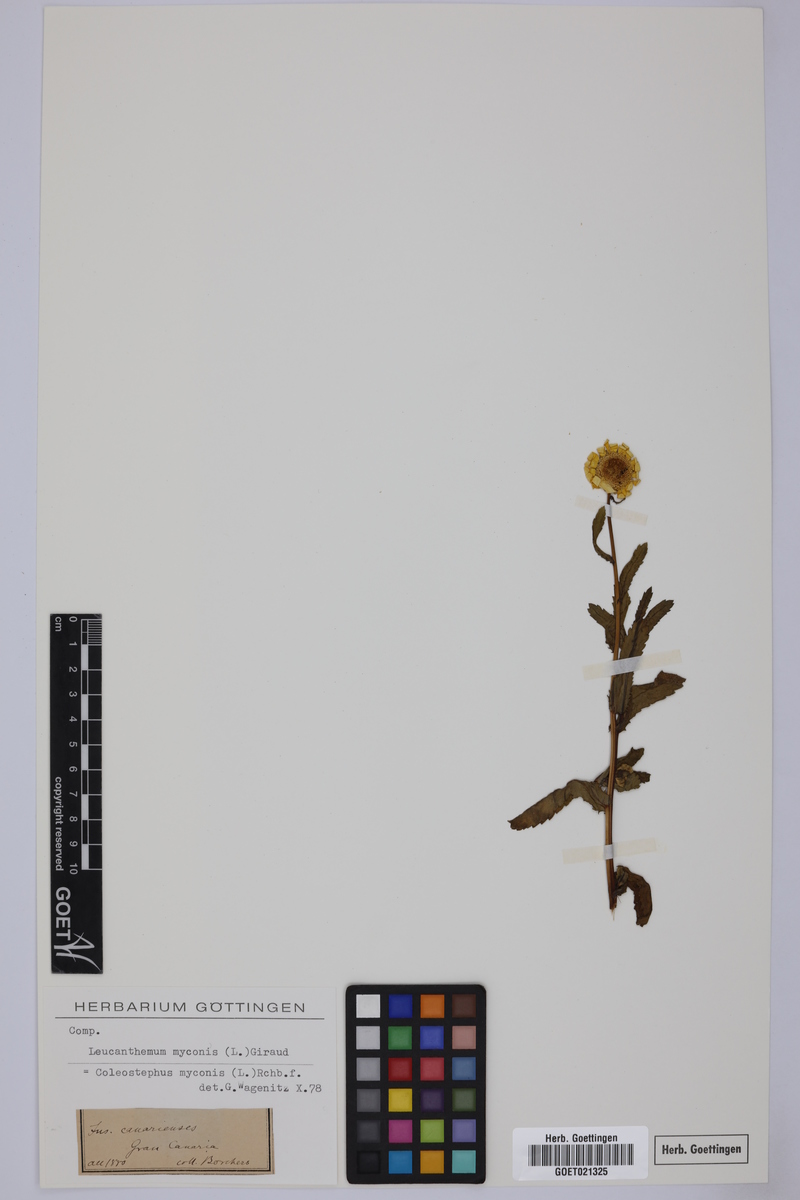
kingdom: Plantae
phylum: Tracheophyta
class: Magnoliopsida
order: Asterales
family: Asteraceae
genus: Coleostephus
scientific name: Coleostephus myconis
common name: Mediterranean marigold
